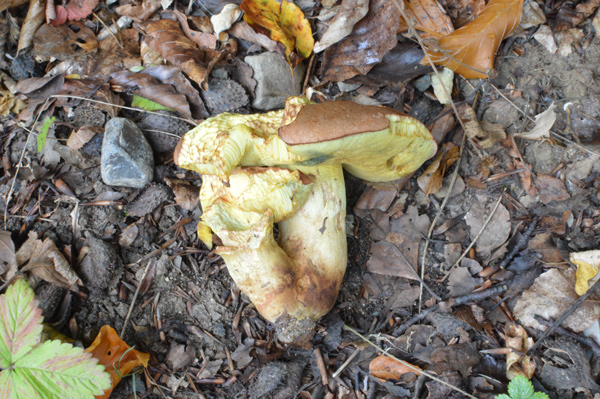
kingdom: Fungi
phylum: Basidiomycota
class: Agaricomycetes
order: Boletales
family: Boletaceae
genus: Butyriboletus
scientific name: Butyriboletus appendiculatus
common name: tenstokket rørhat
